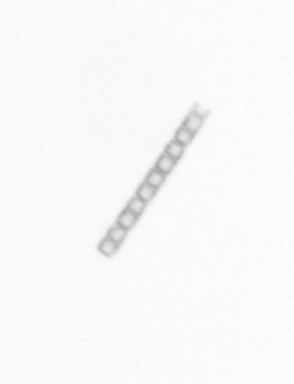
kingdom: Chromista
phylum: Ochrophyta
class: Bacillariophyceae
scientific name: Bacillariophyceae
